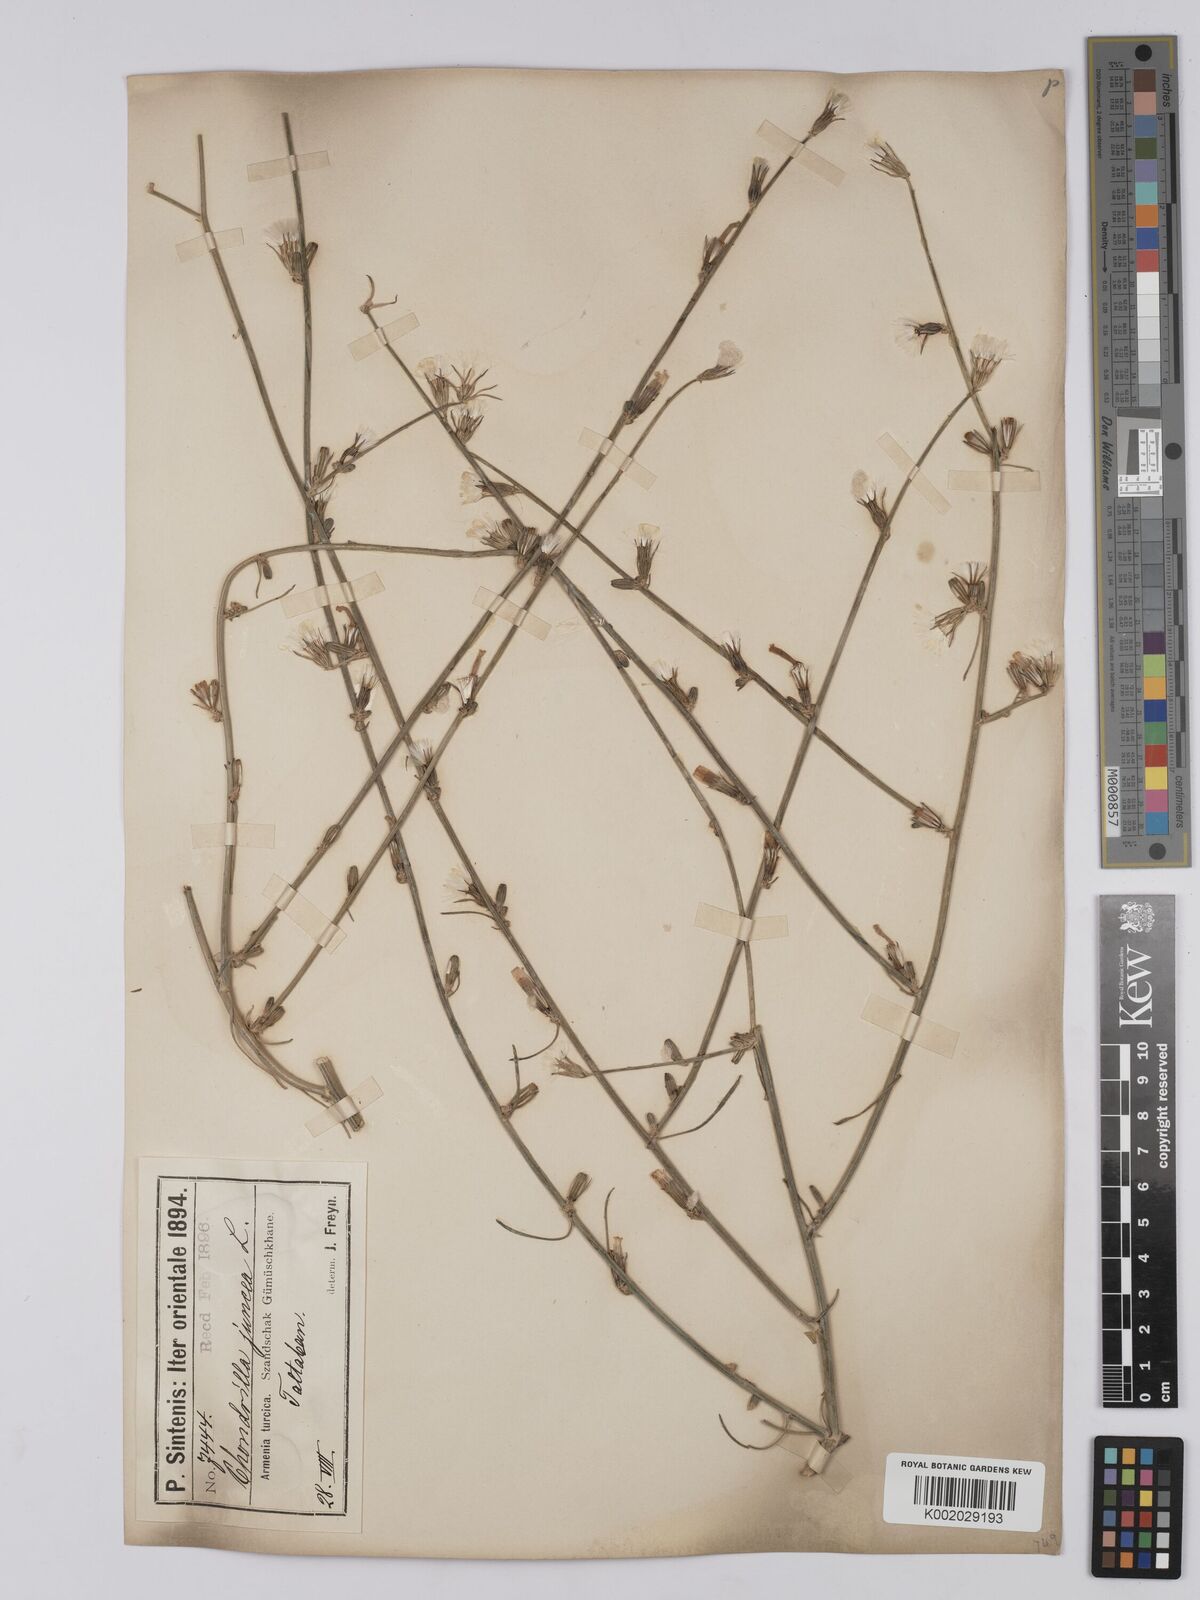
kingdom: Plantae
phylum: Tracheophyta
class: Magnoliopsida
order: Asterales
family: Asteraceae
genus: Chondrilla
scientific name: Chondrilla juncea
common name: Skeleton weed
